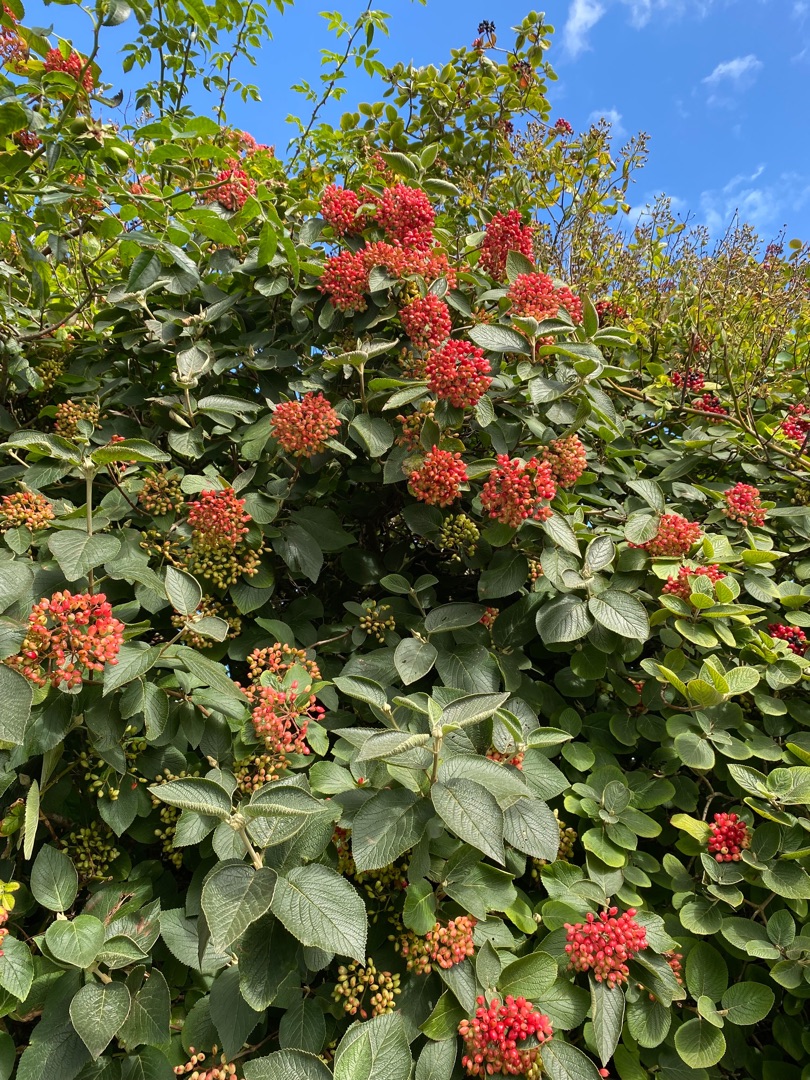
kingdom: Plantae
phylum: Tracheophyta
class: Magnoliopsida
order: Dipsacales
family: Viburnaceae
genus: Viburnum
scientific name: Viburnum lantana
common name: Pibe-kvalkved
